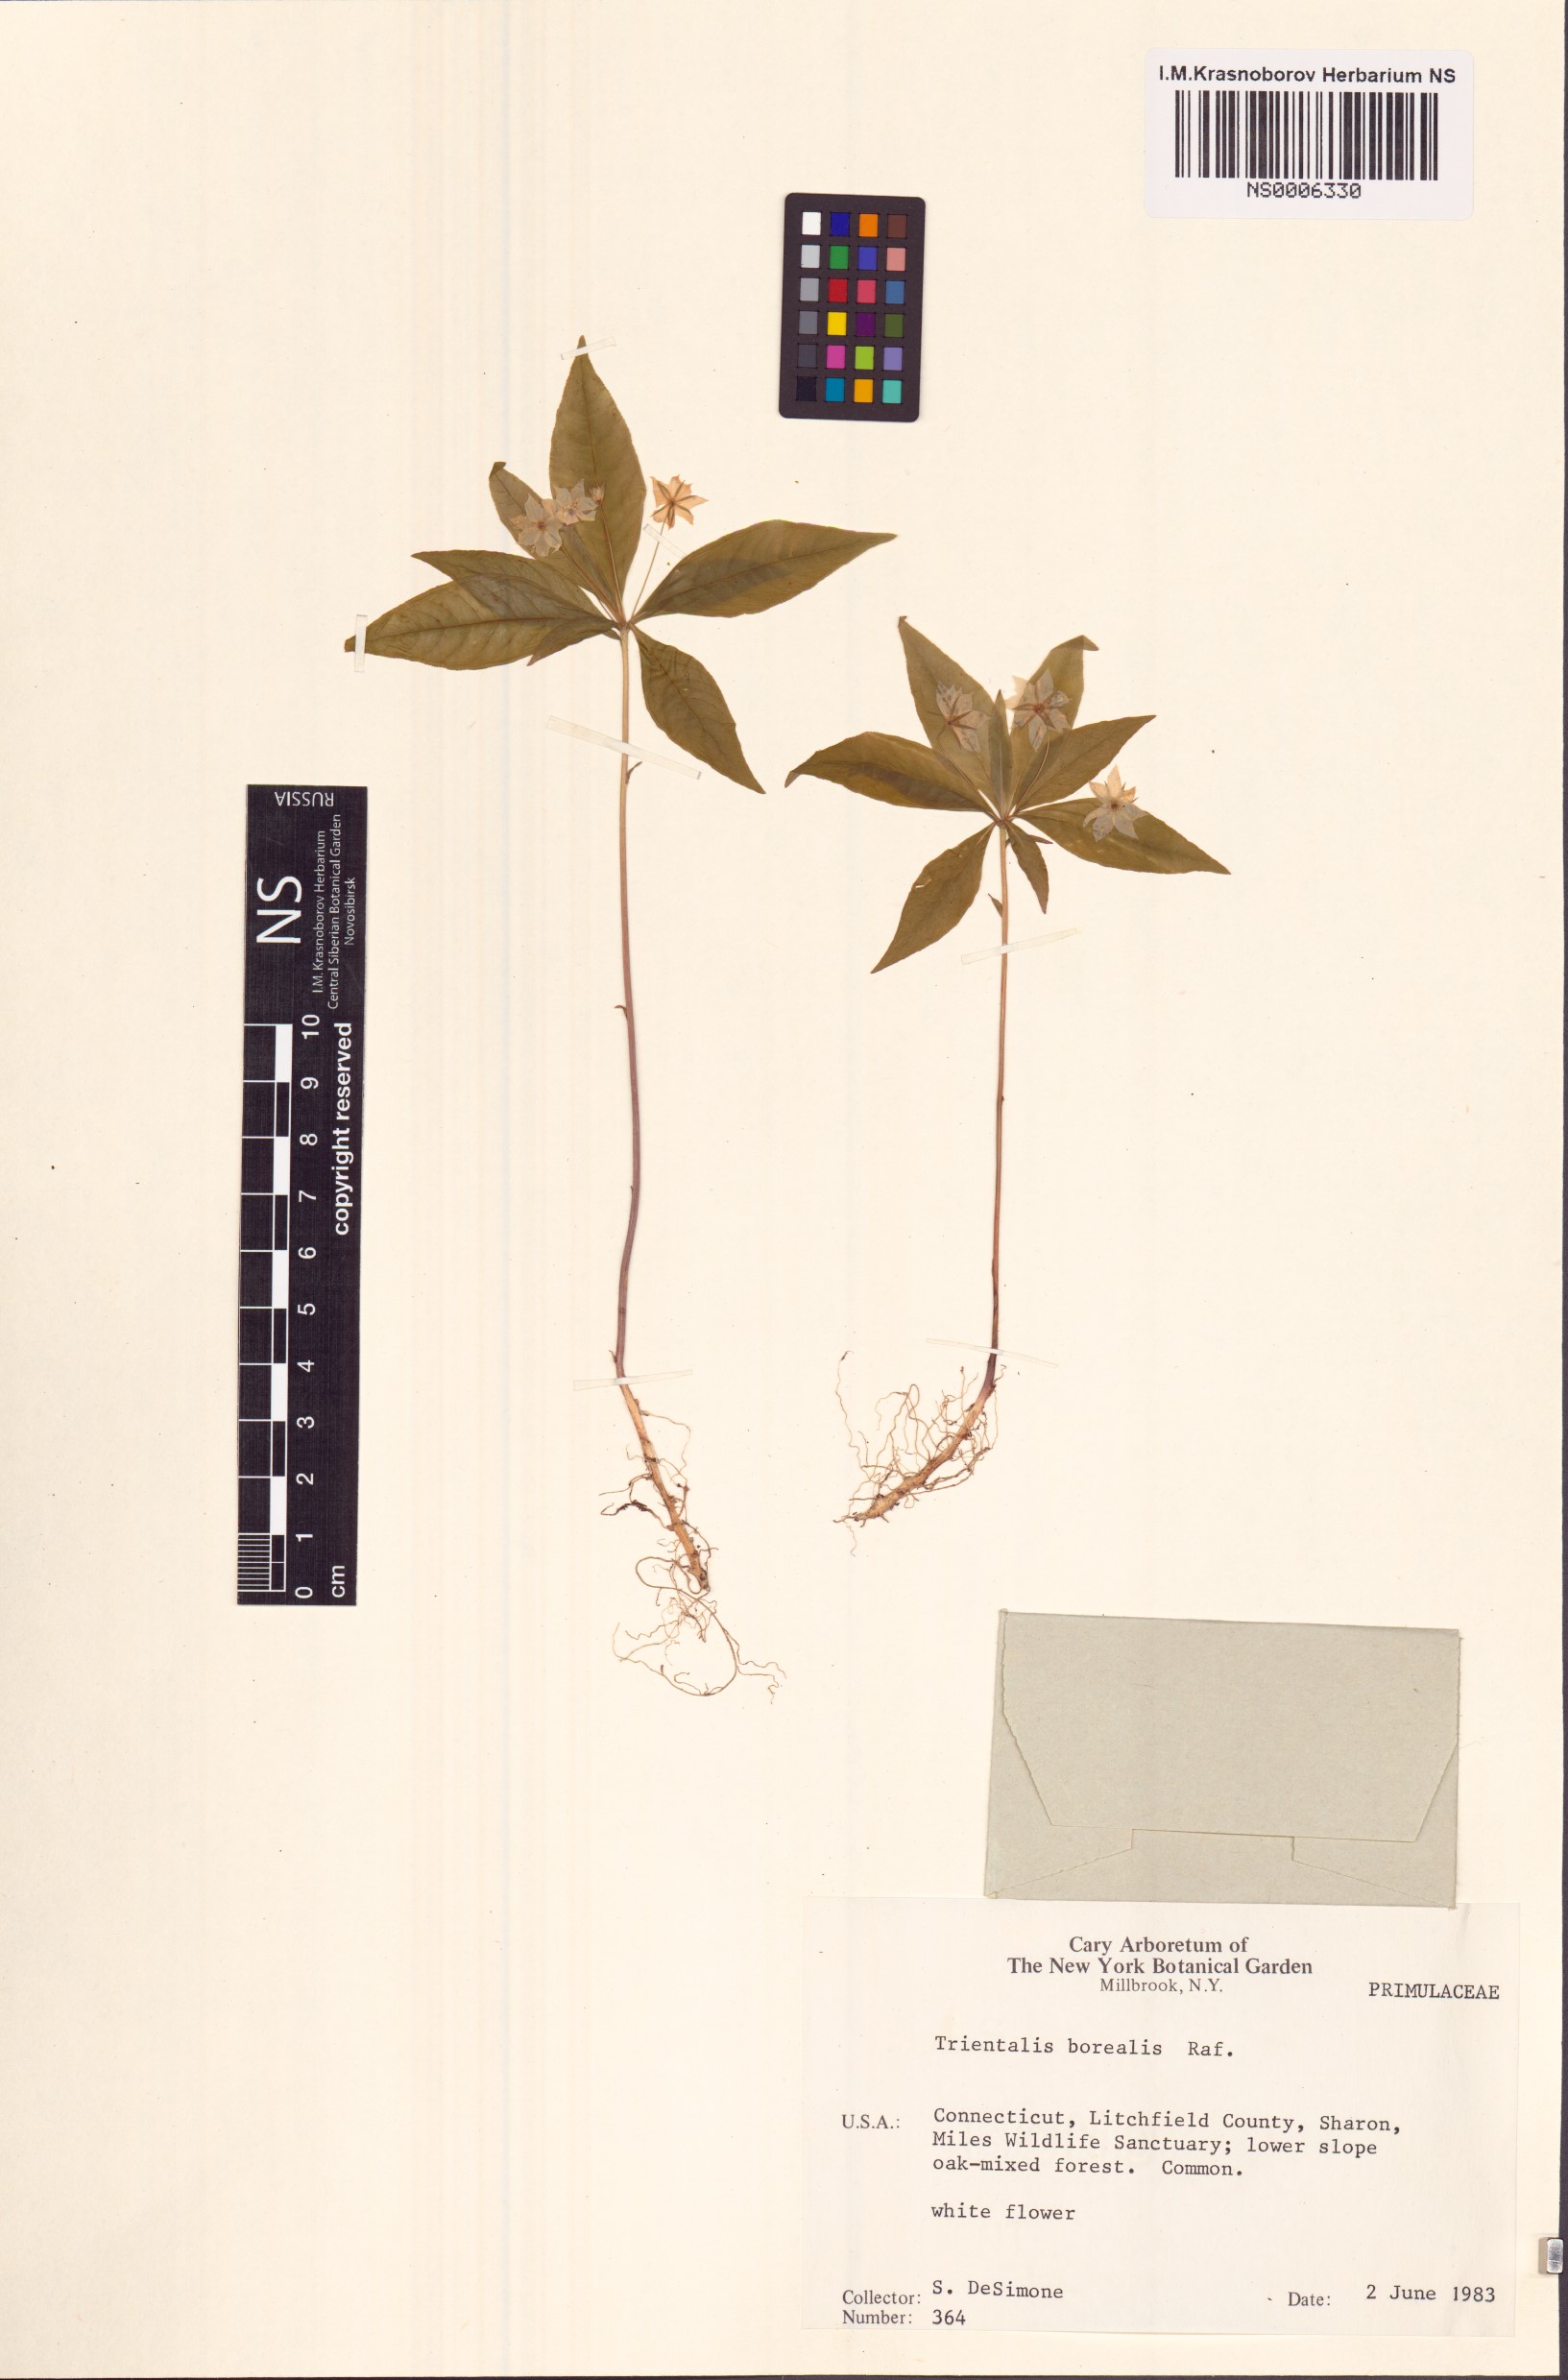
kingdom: Plantae
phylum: Tracheophyta
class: Magnoliopsida
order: Ericales
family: Primulaceae
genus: Lysimachia
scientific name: Lysimachia borealis
